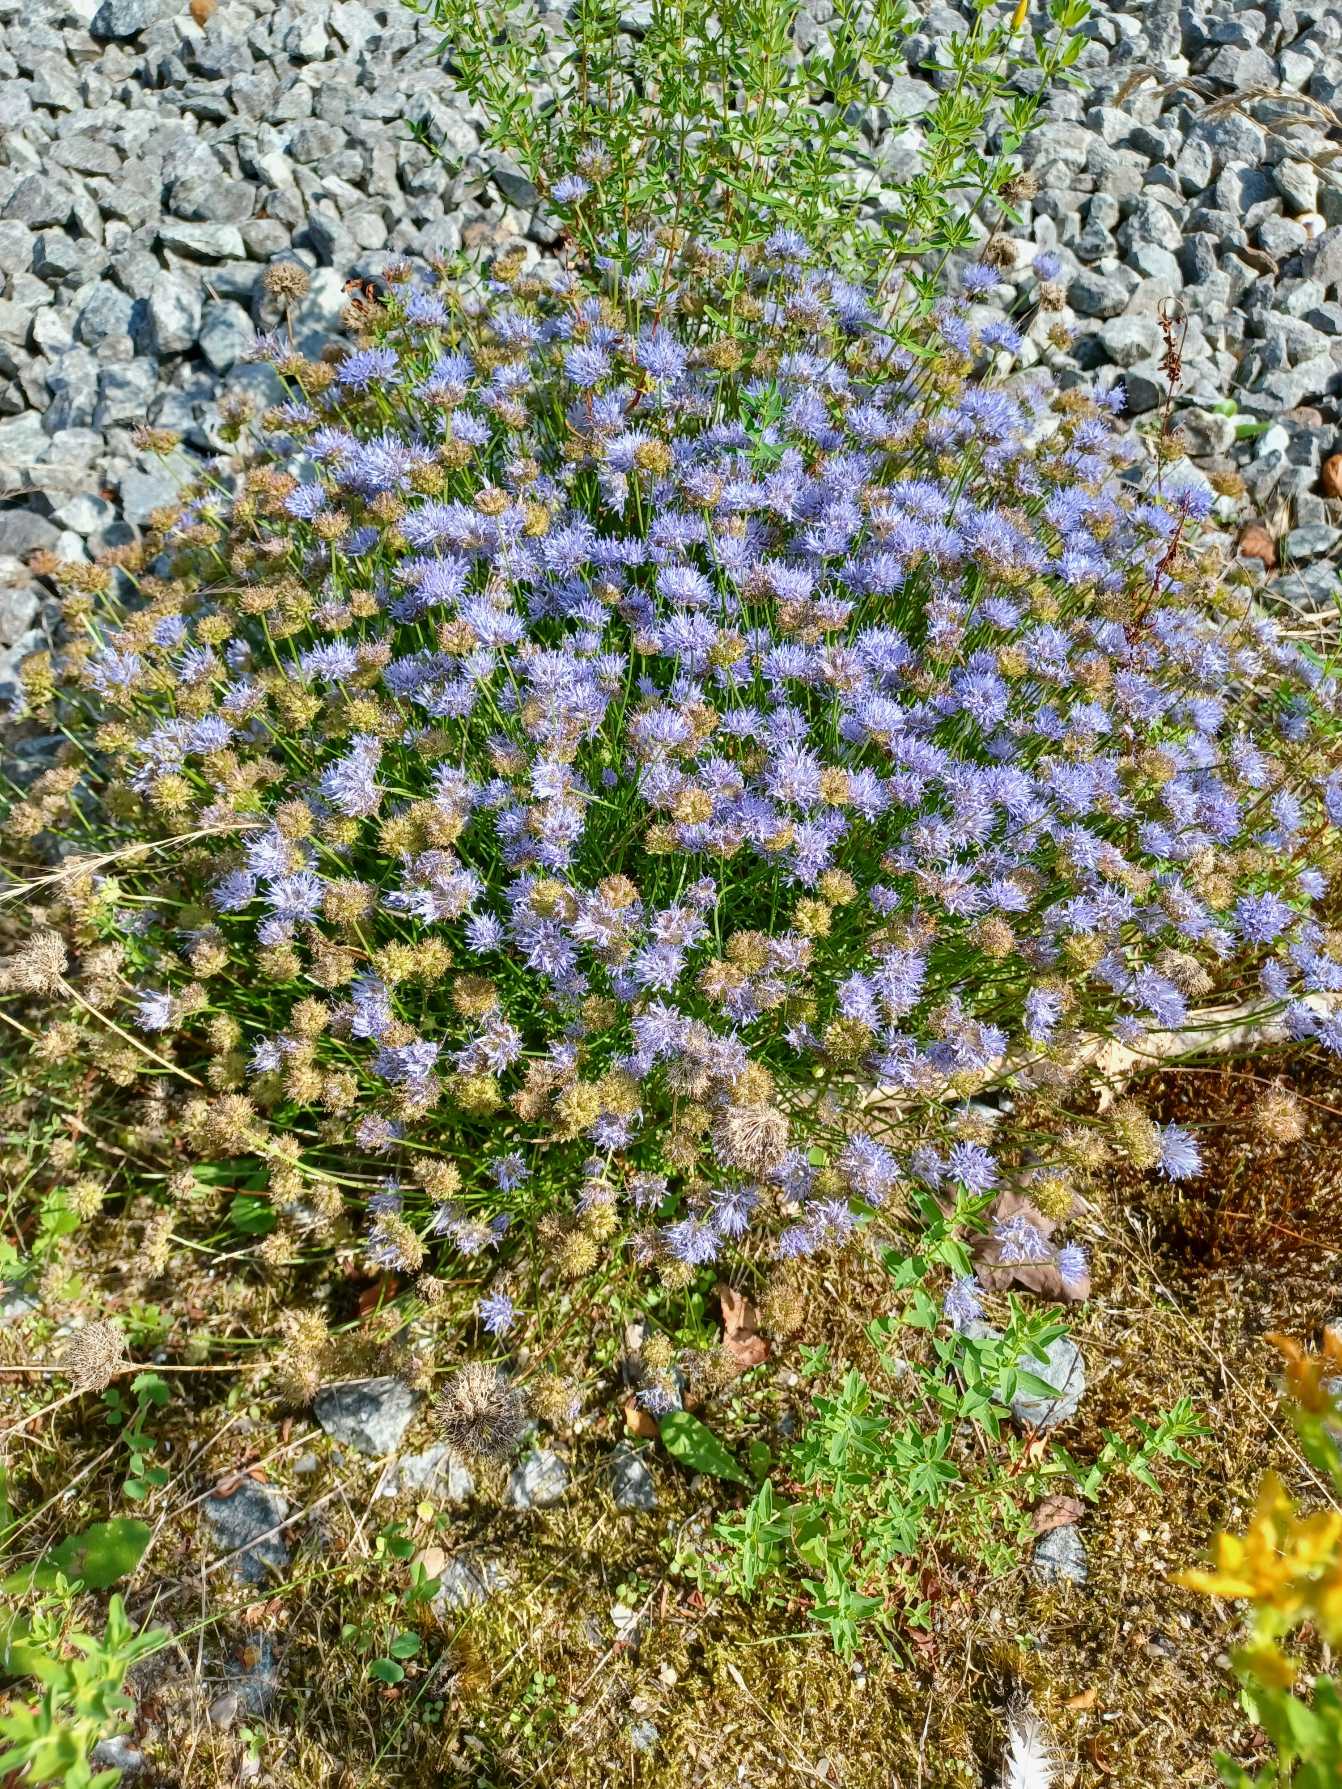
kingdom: Plantae
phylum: Tracheophyta
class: Magnoliopsida
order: Asterales
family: Campanulaceae
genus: Jasione
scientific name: Jasione montana
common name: Blåmunke
